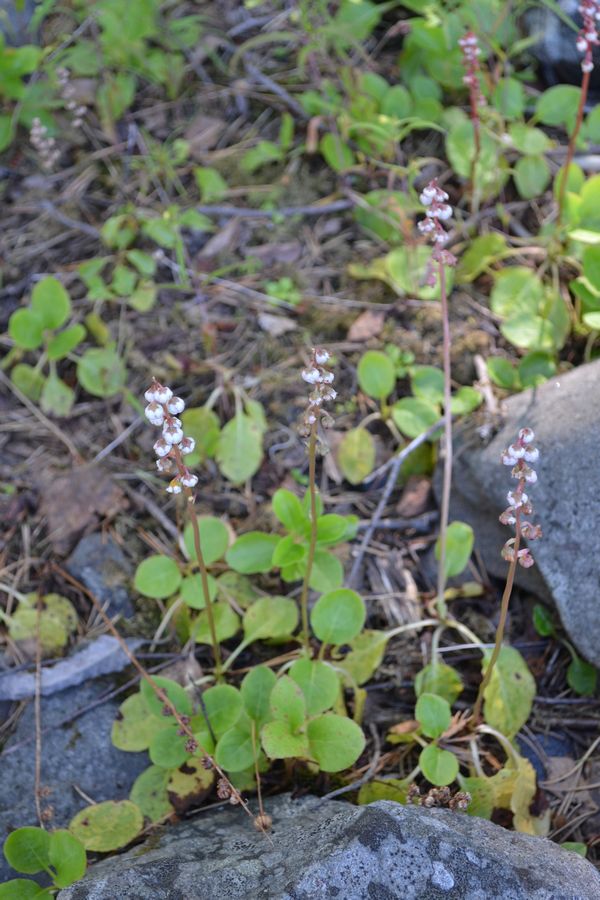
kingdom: Plantae
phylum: Tracheophyta
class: Magnoliopsida
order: Ericales
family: Ericaceae
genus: Pyrola
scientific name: Pyrola minor
